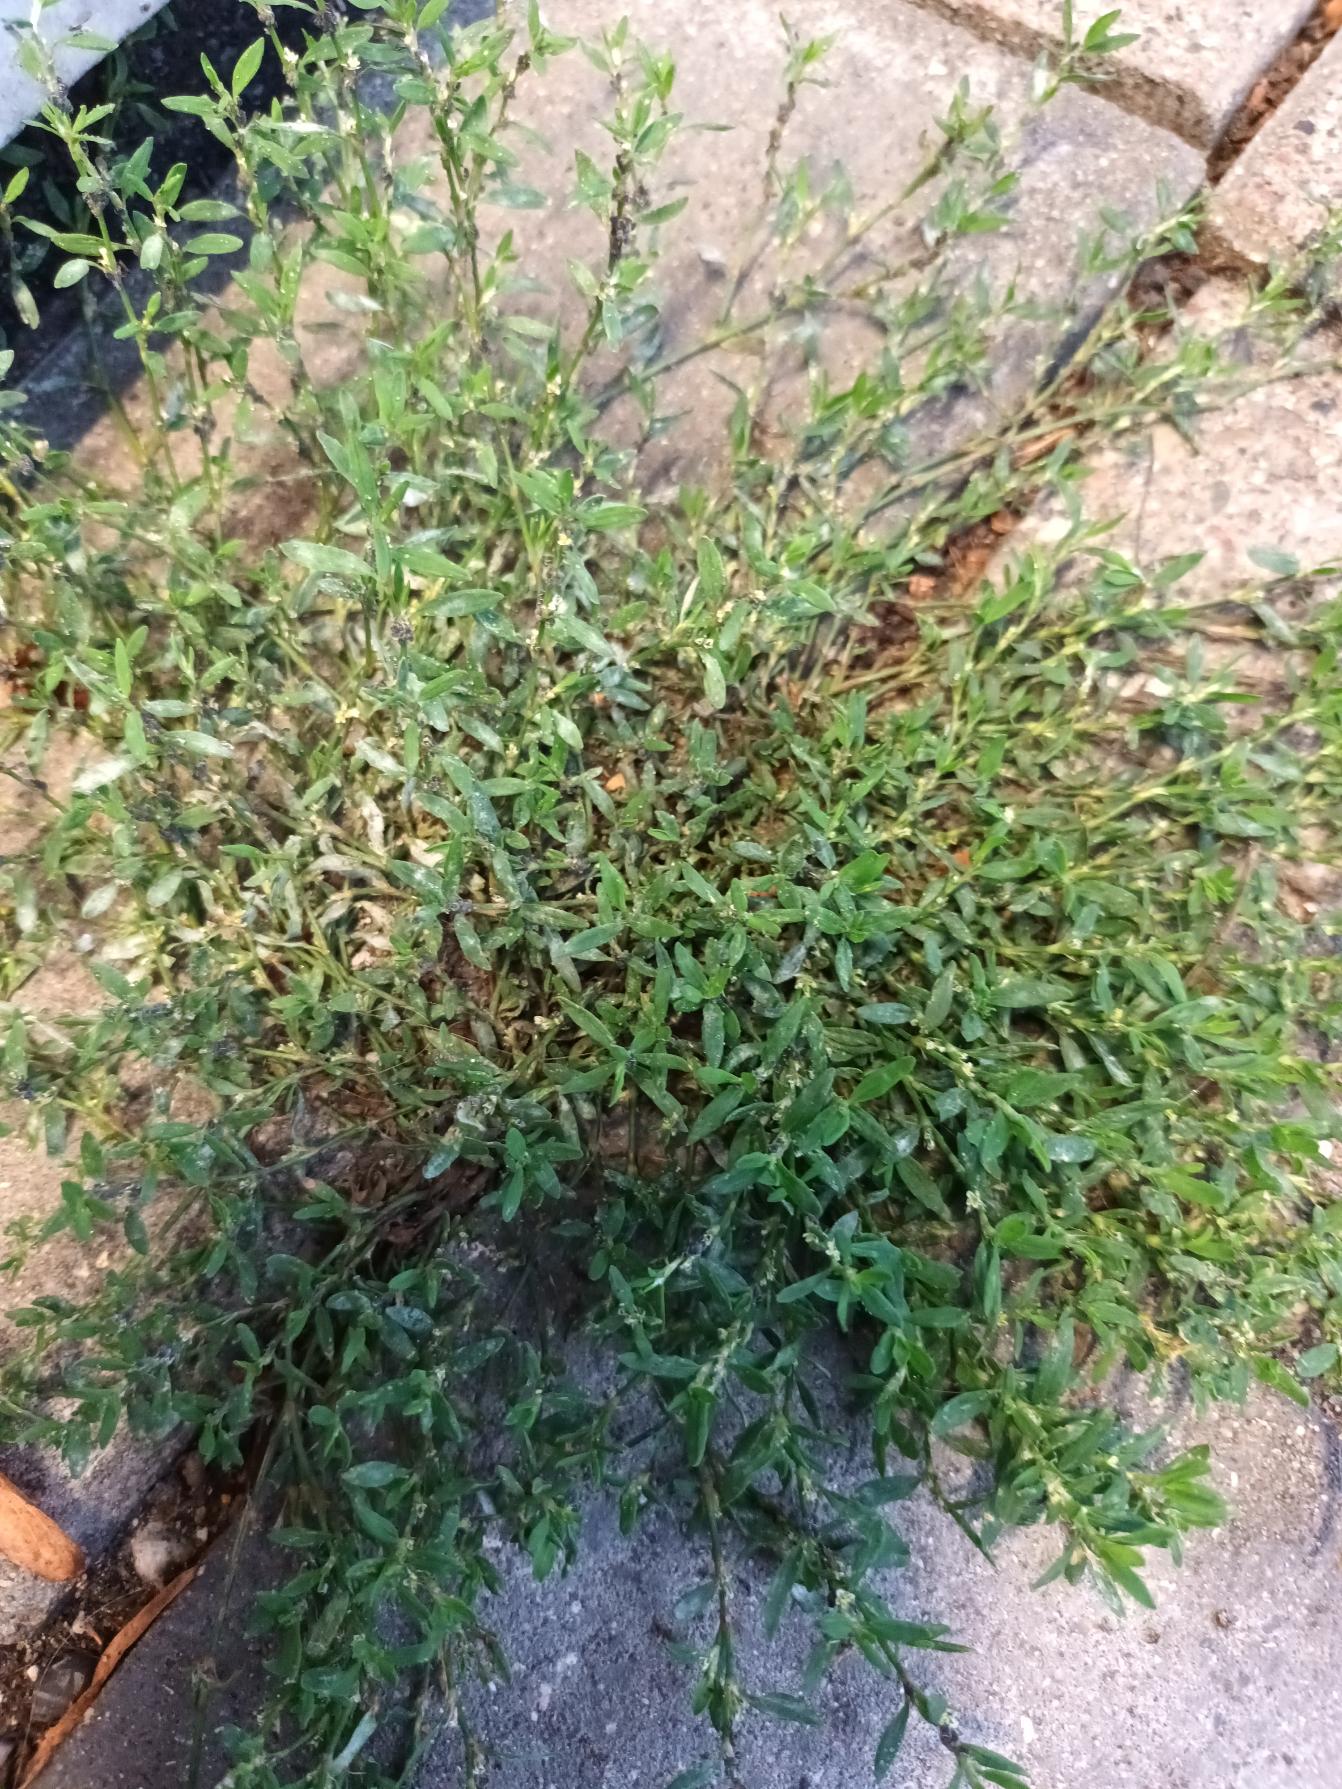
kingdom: Plantae
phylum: Tracheophyta
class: Magnoliopsida
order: Caryophyllales
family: Polygonaceae
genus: Polygonum
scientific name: Polygonum arenastrum
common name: Liggende vej-pileurt
